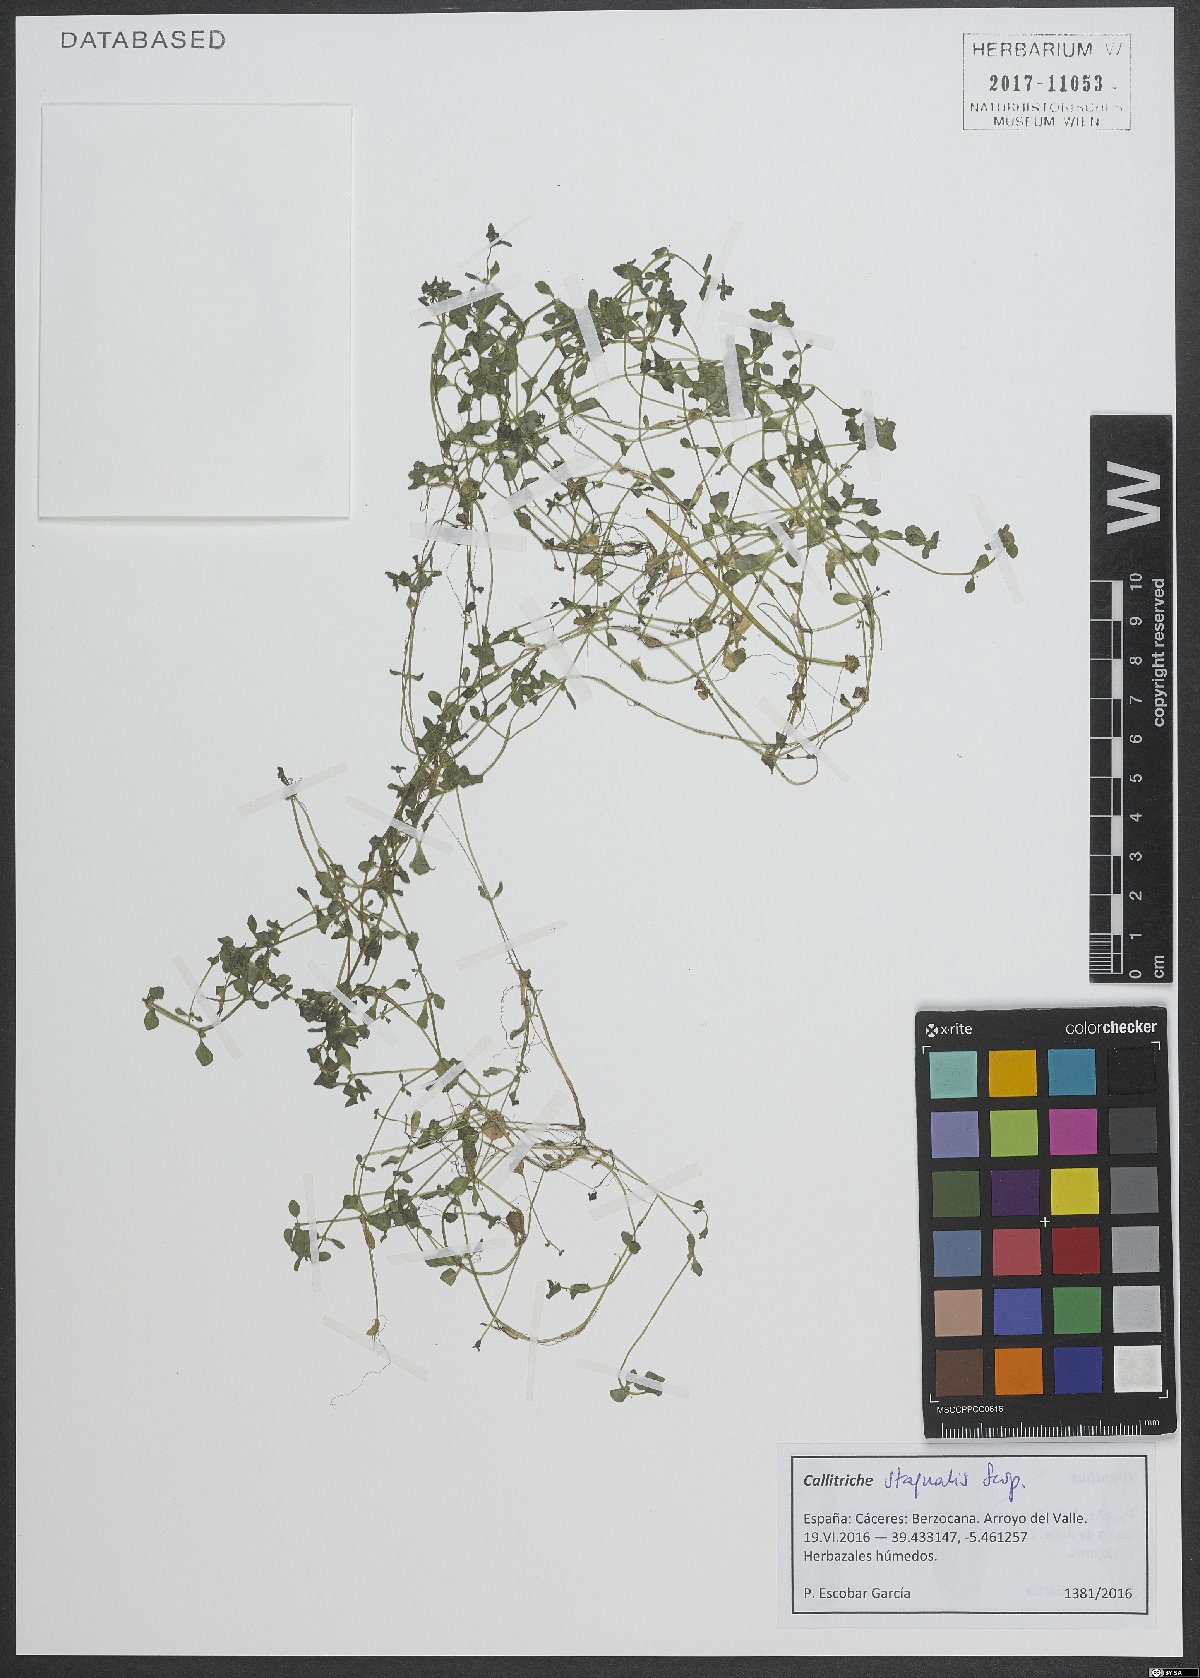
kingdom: Plantae
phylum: Tracheophyta
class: Magnoliopsida
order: Lamiales
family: Plantaginaceae
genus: Callitriche
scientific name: Callitriche stagnalis
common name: Common water-starwort
